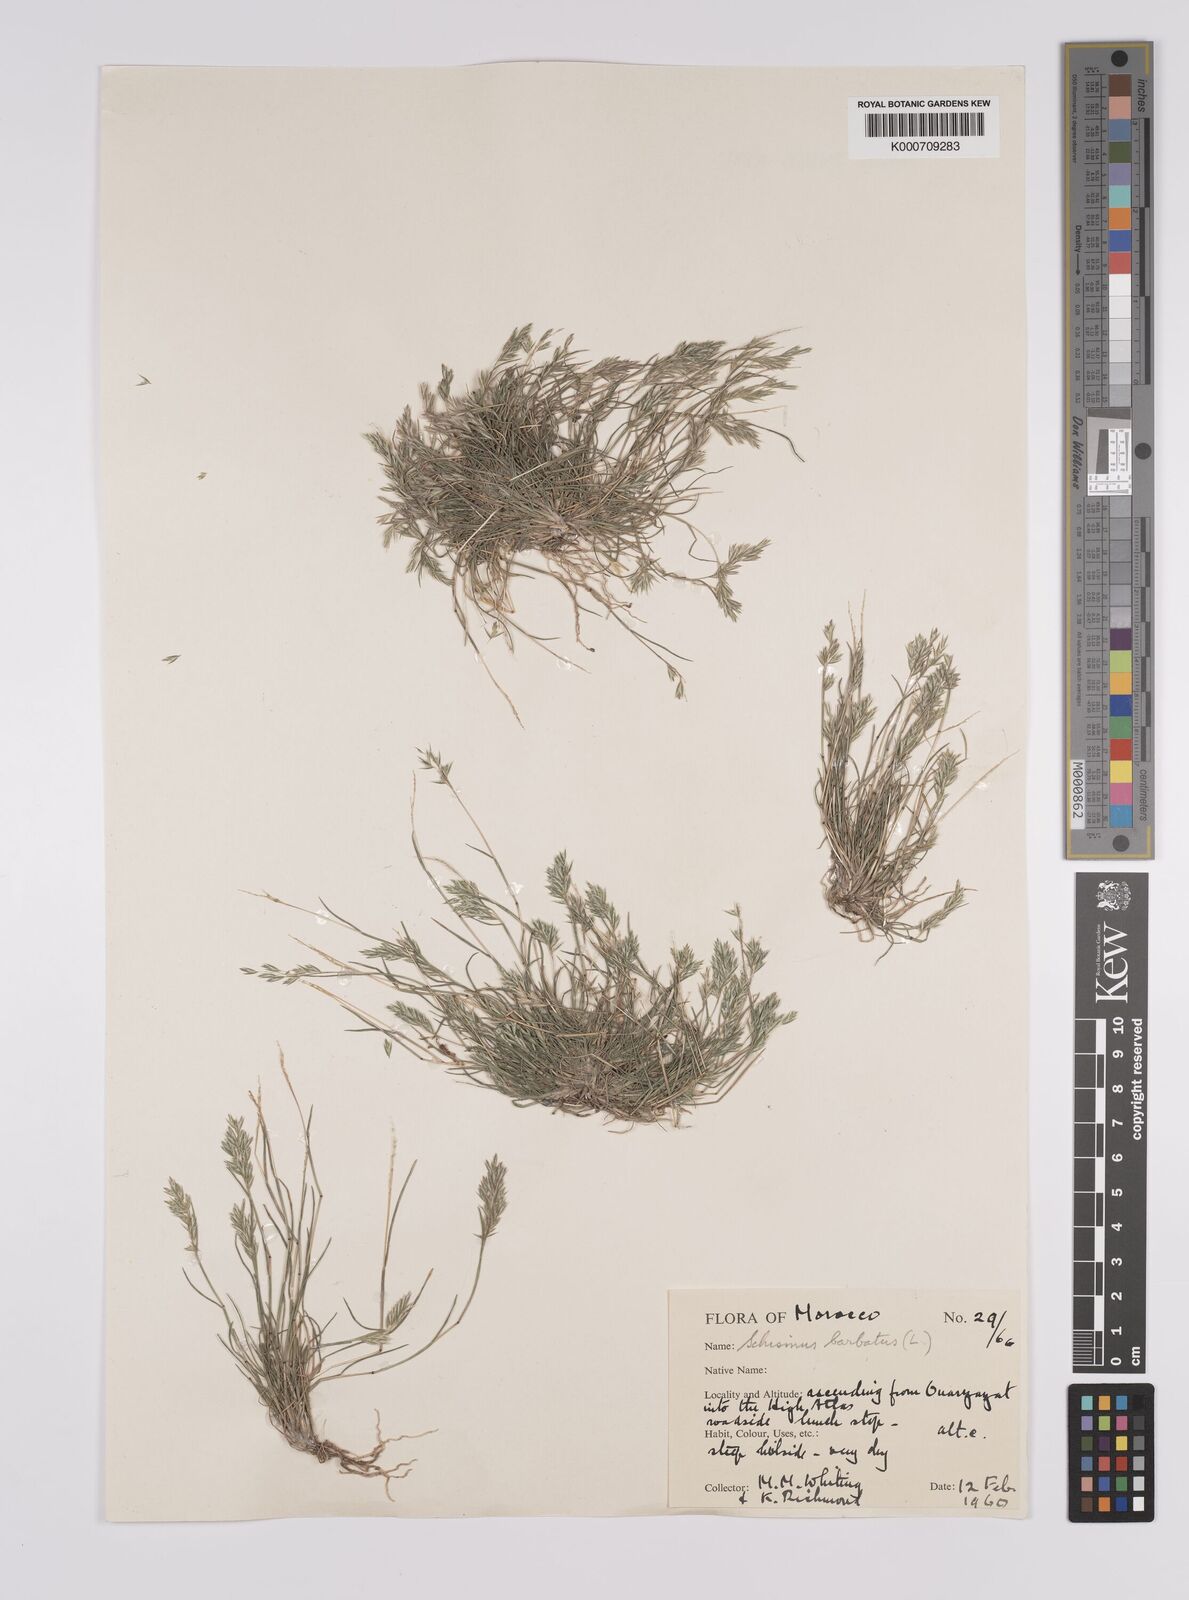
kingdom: Plantae
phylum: Tracheophyta
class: Liliopsida
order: Poales
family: Poaceae
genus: Schismus
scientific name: Schismus barbatus
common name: Kelch-grass
